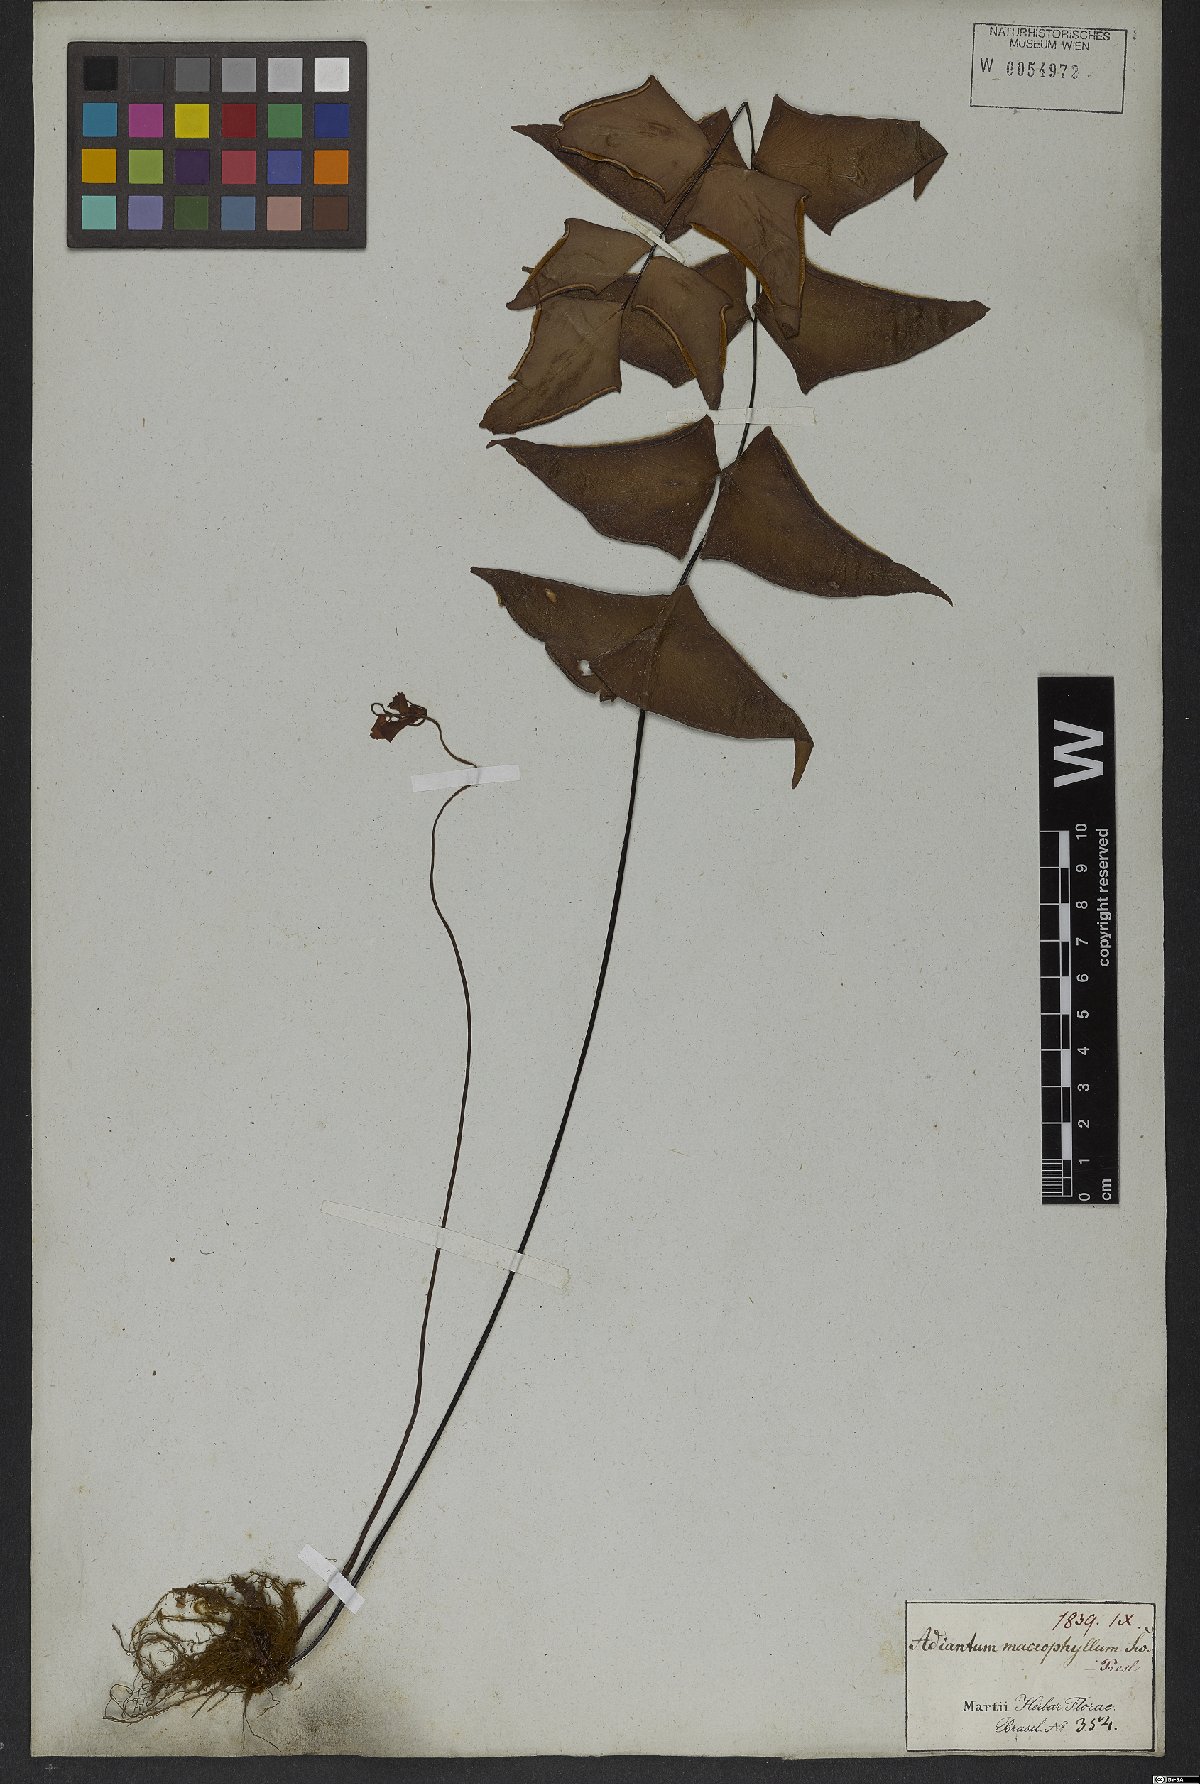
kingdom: Plantae
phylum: Tracheophyta
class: Polypodiopsida
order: Polypodiales
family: Pteridaceae
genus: Adiantum
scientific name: Adiantum macrophyllum
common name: Largeleaf maidenhair
